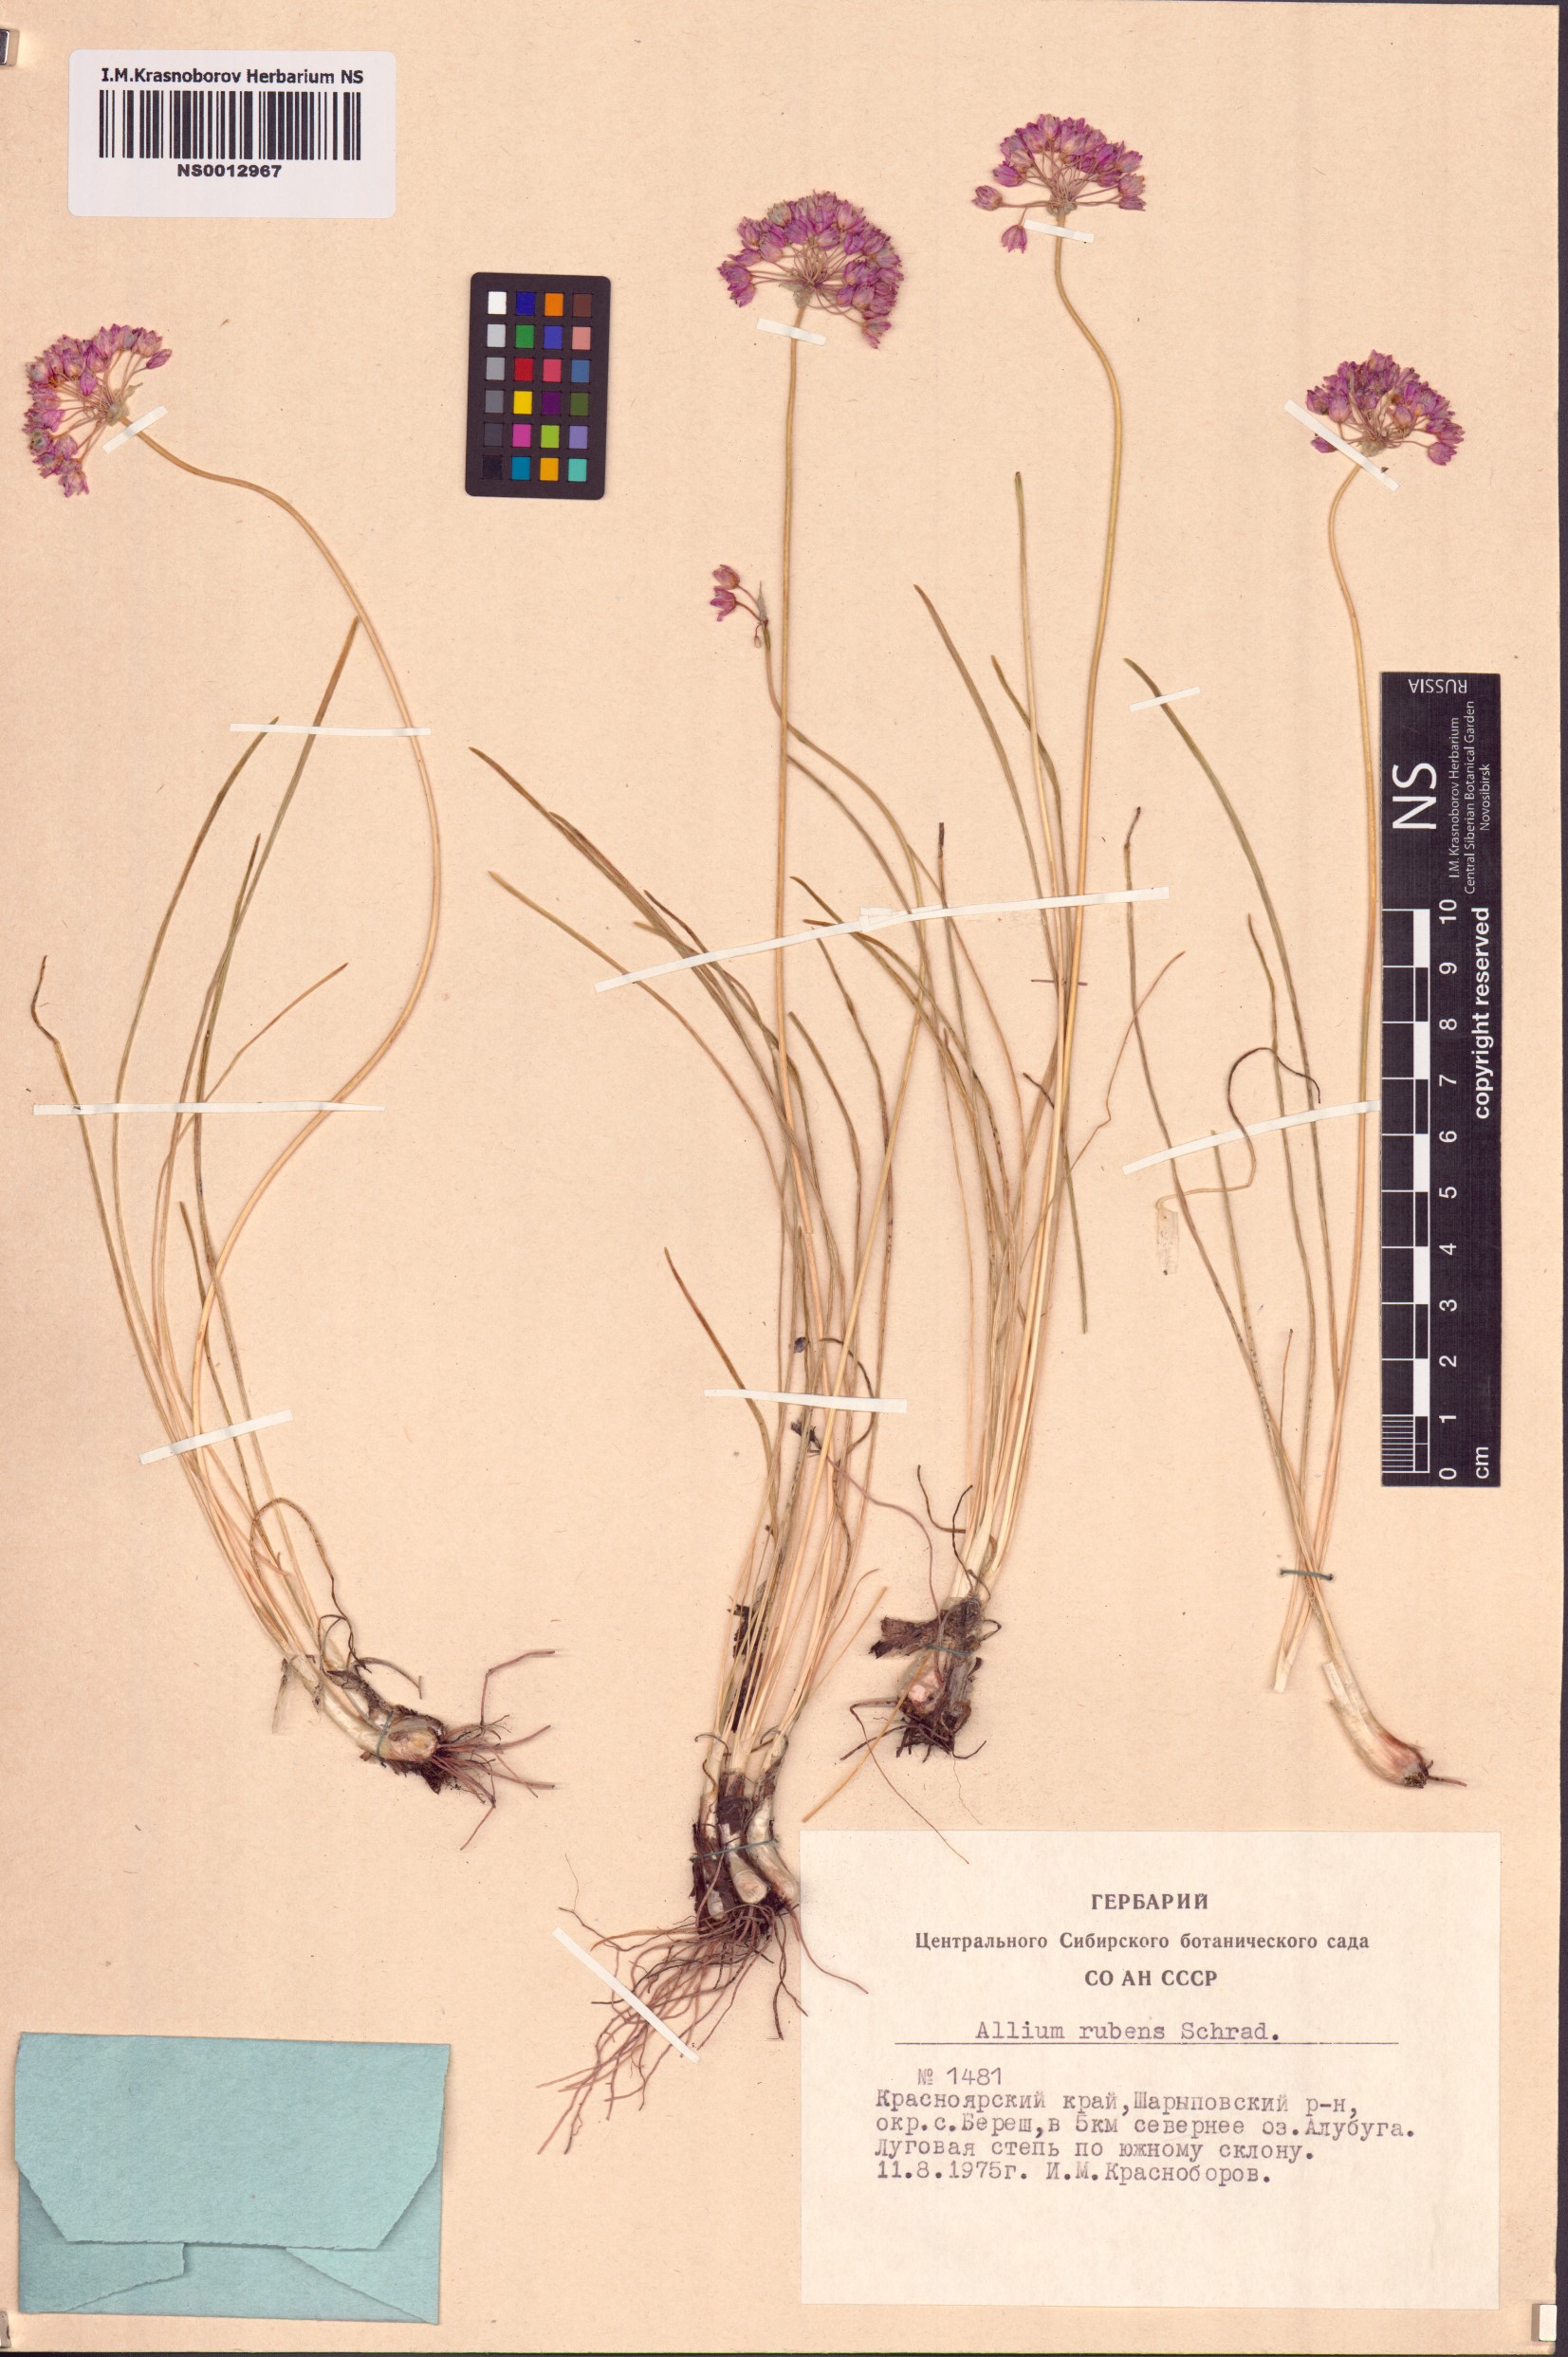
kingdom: Plantae
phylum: Tracheophyta
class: Liliopsida
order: Asparagales
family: Amaryllidaceae
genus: Allium
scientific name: Allium rubens
